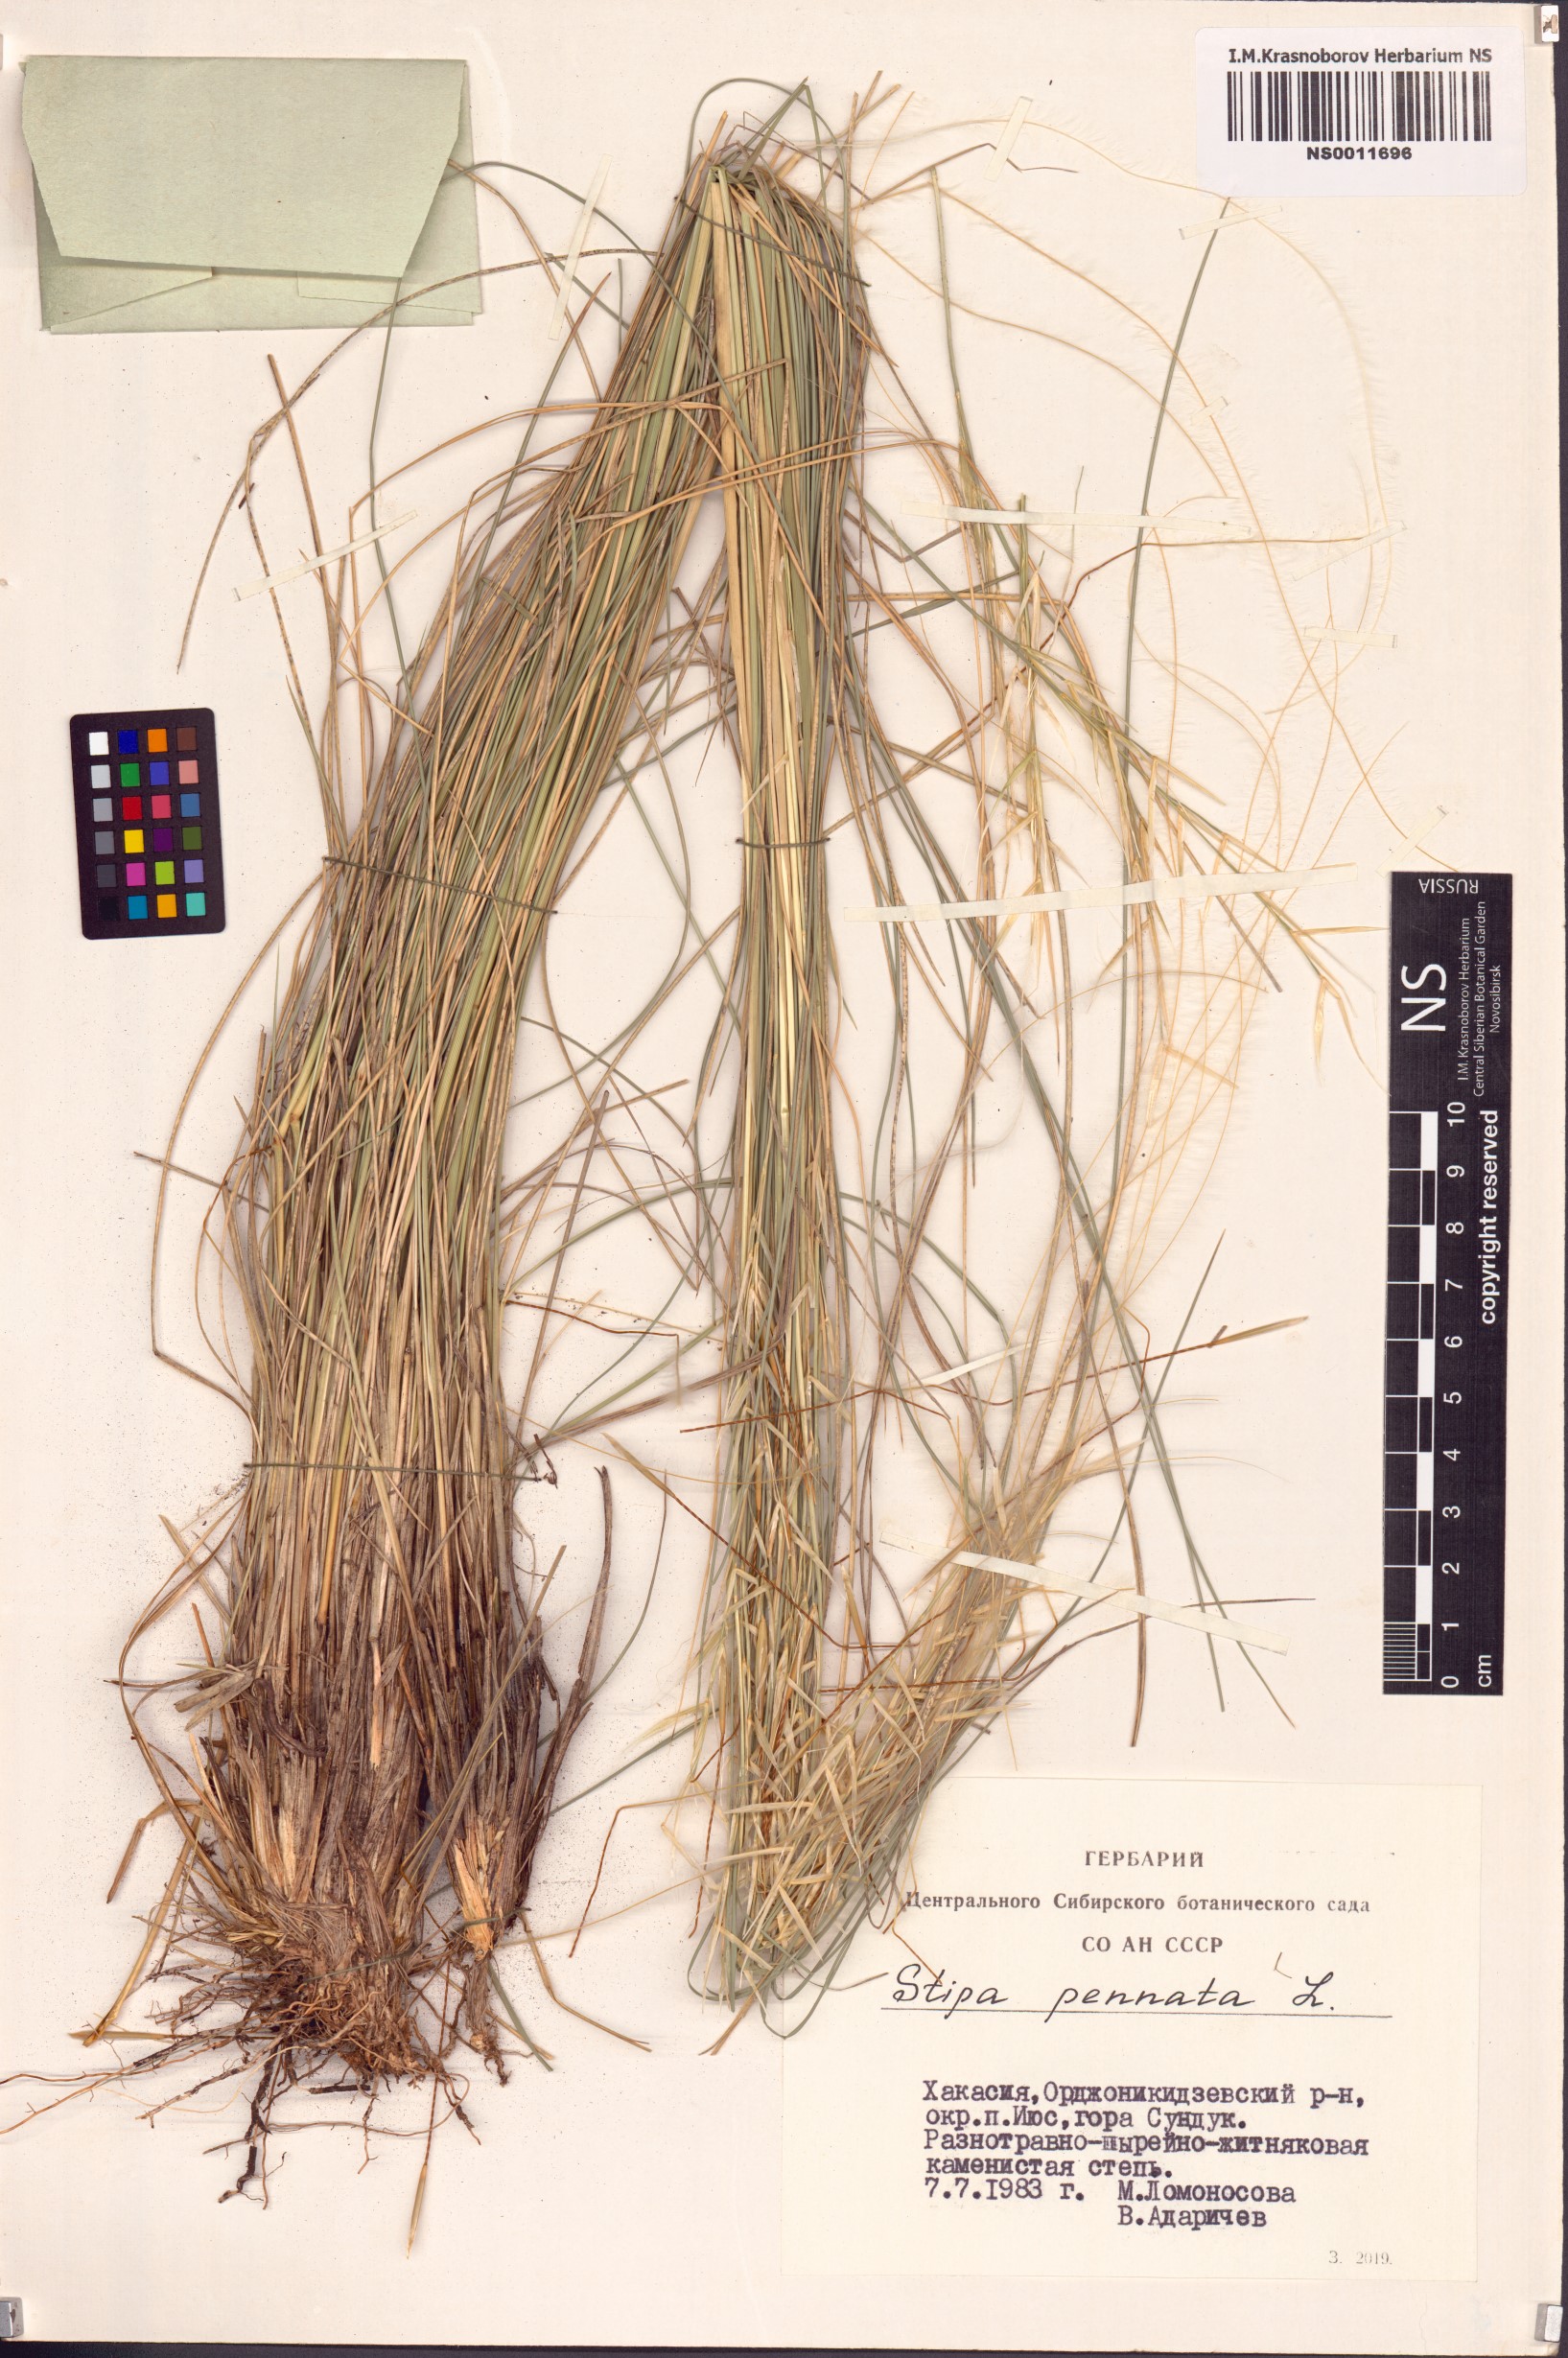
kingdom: Plantae
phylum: Tracheophyta
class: Liliopsida
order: Poales
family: Poaceae
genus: Stipa
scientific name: Stipa pennata
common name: European feather grass
